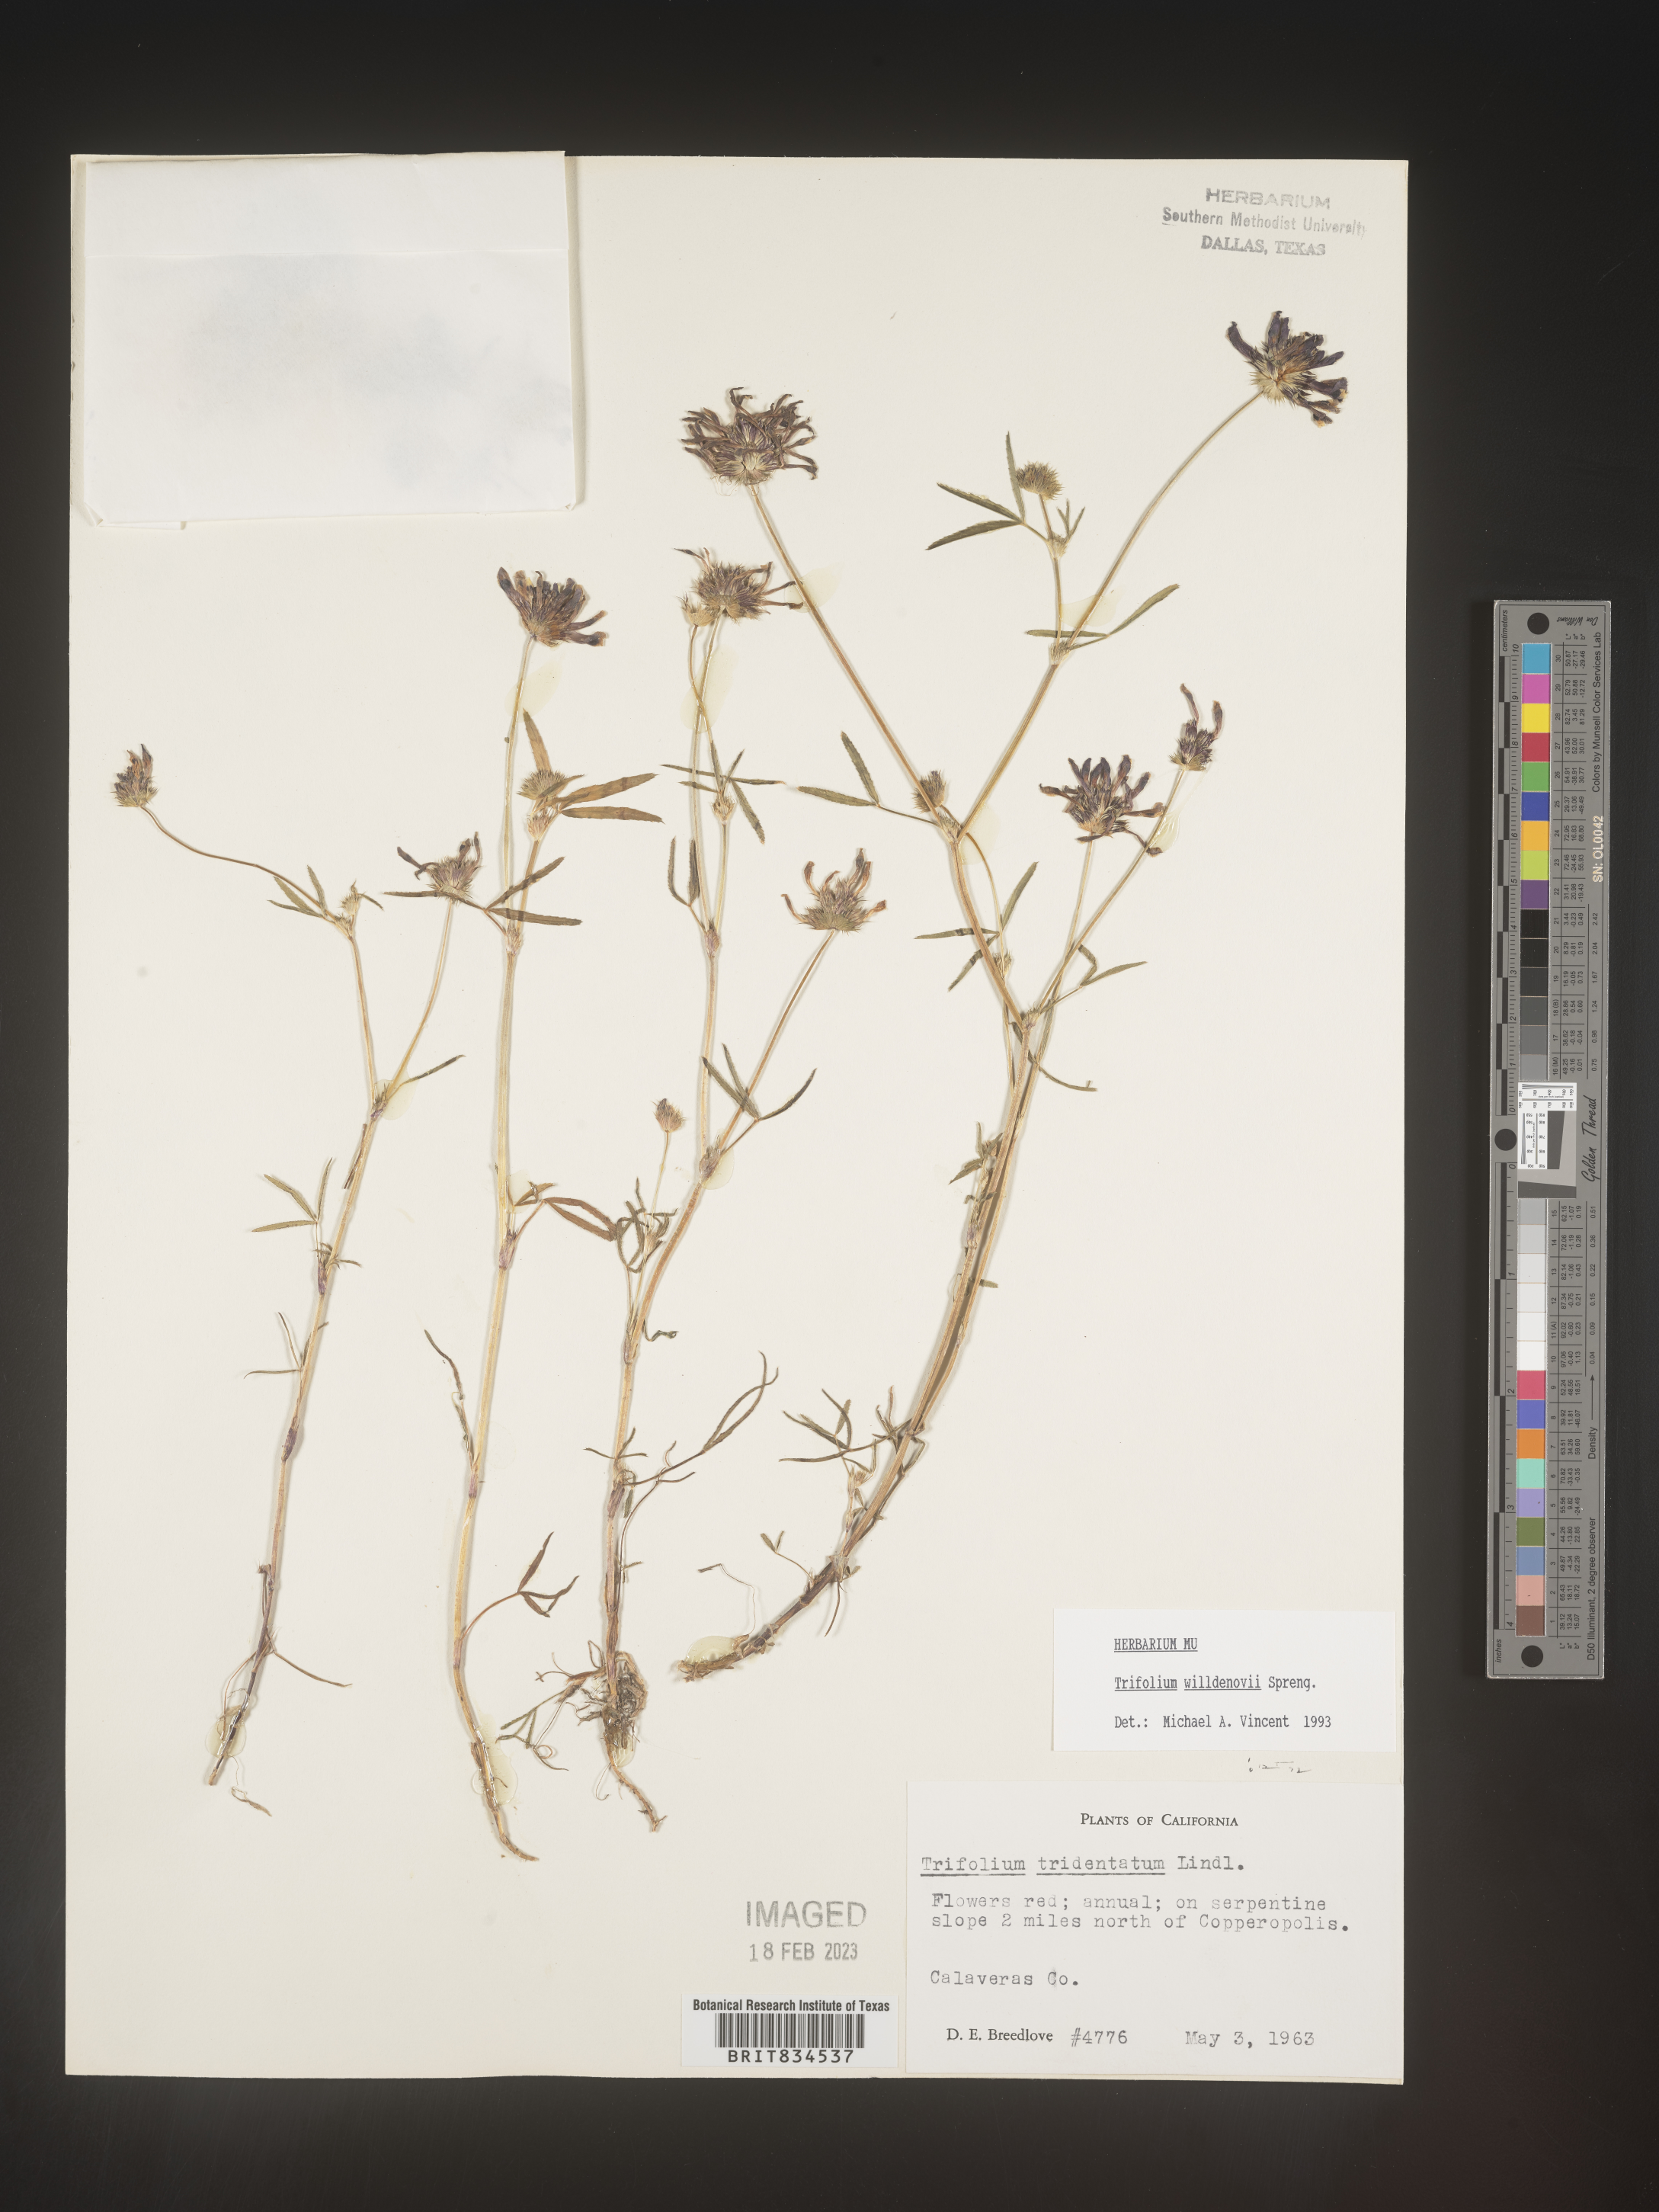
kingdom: Plantae
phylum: Tracheophyta
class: Magnoliopsida
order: Fabales
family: Fabaceae
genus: Trifolium
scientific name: Trifolium
